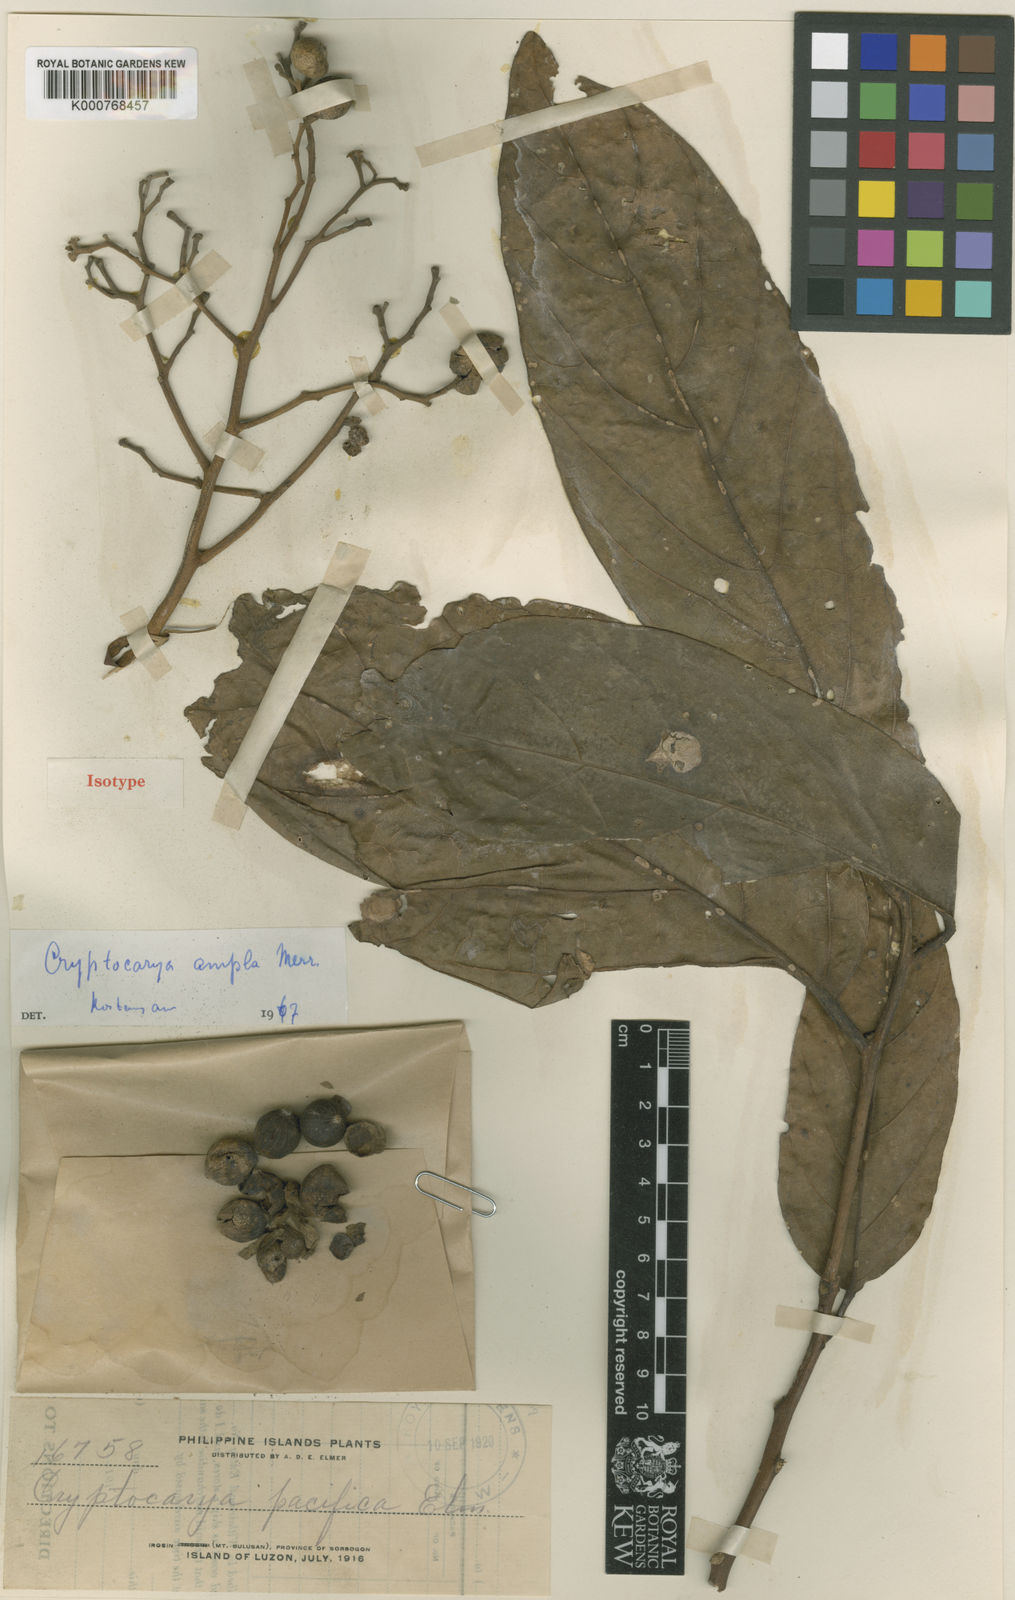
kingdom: Plantae
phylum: Tracheophyta
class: Magnoliopsida
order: Laurales
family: Lauraceae
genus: Cryptocarya
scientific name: Cryptocarya ampla
